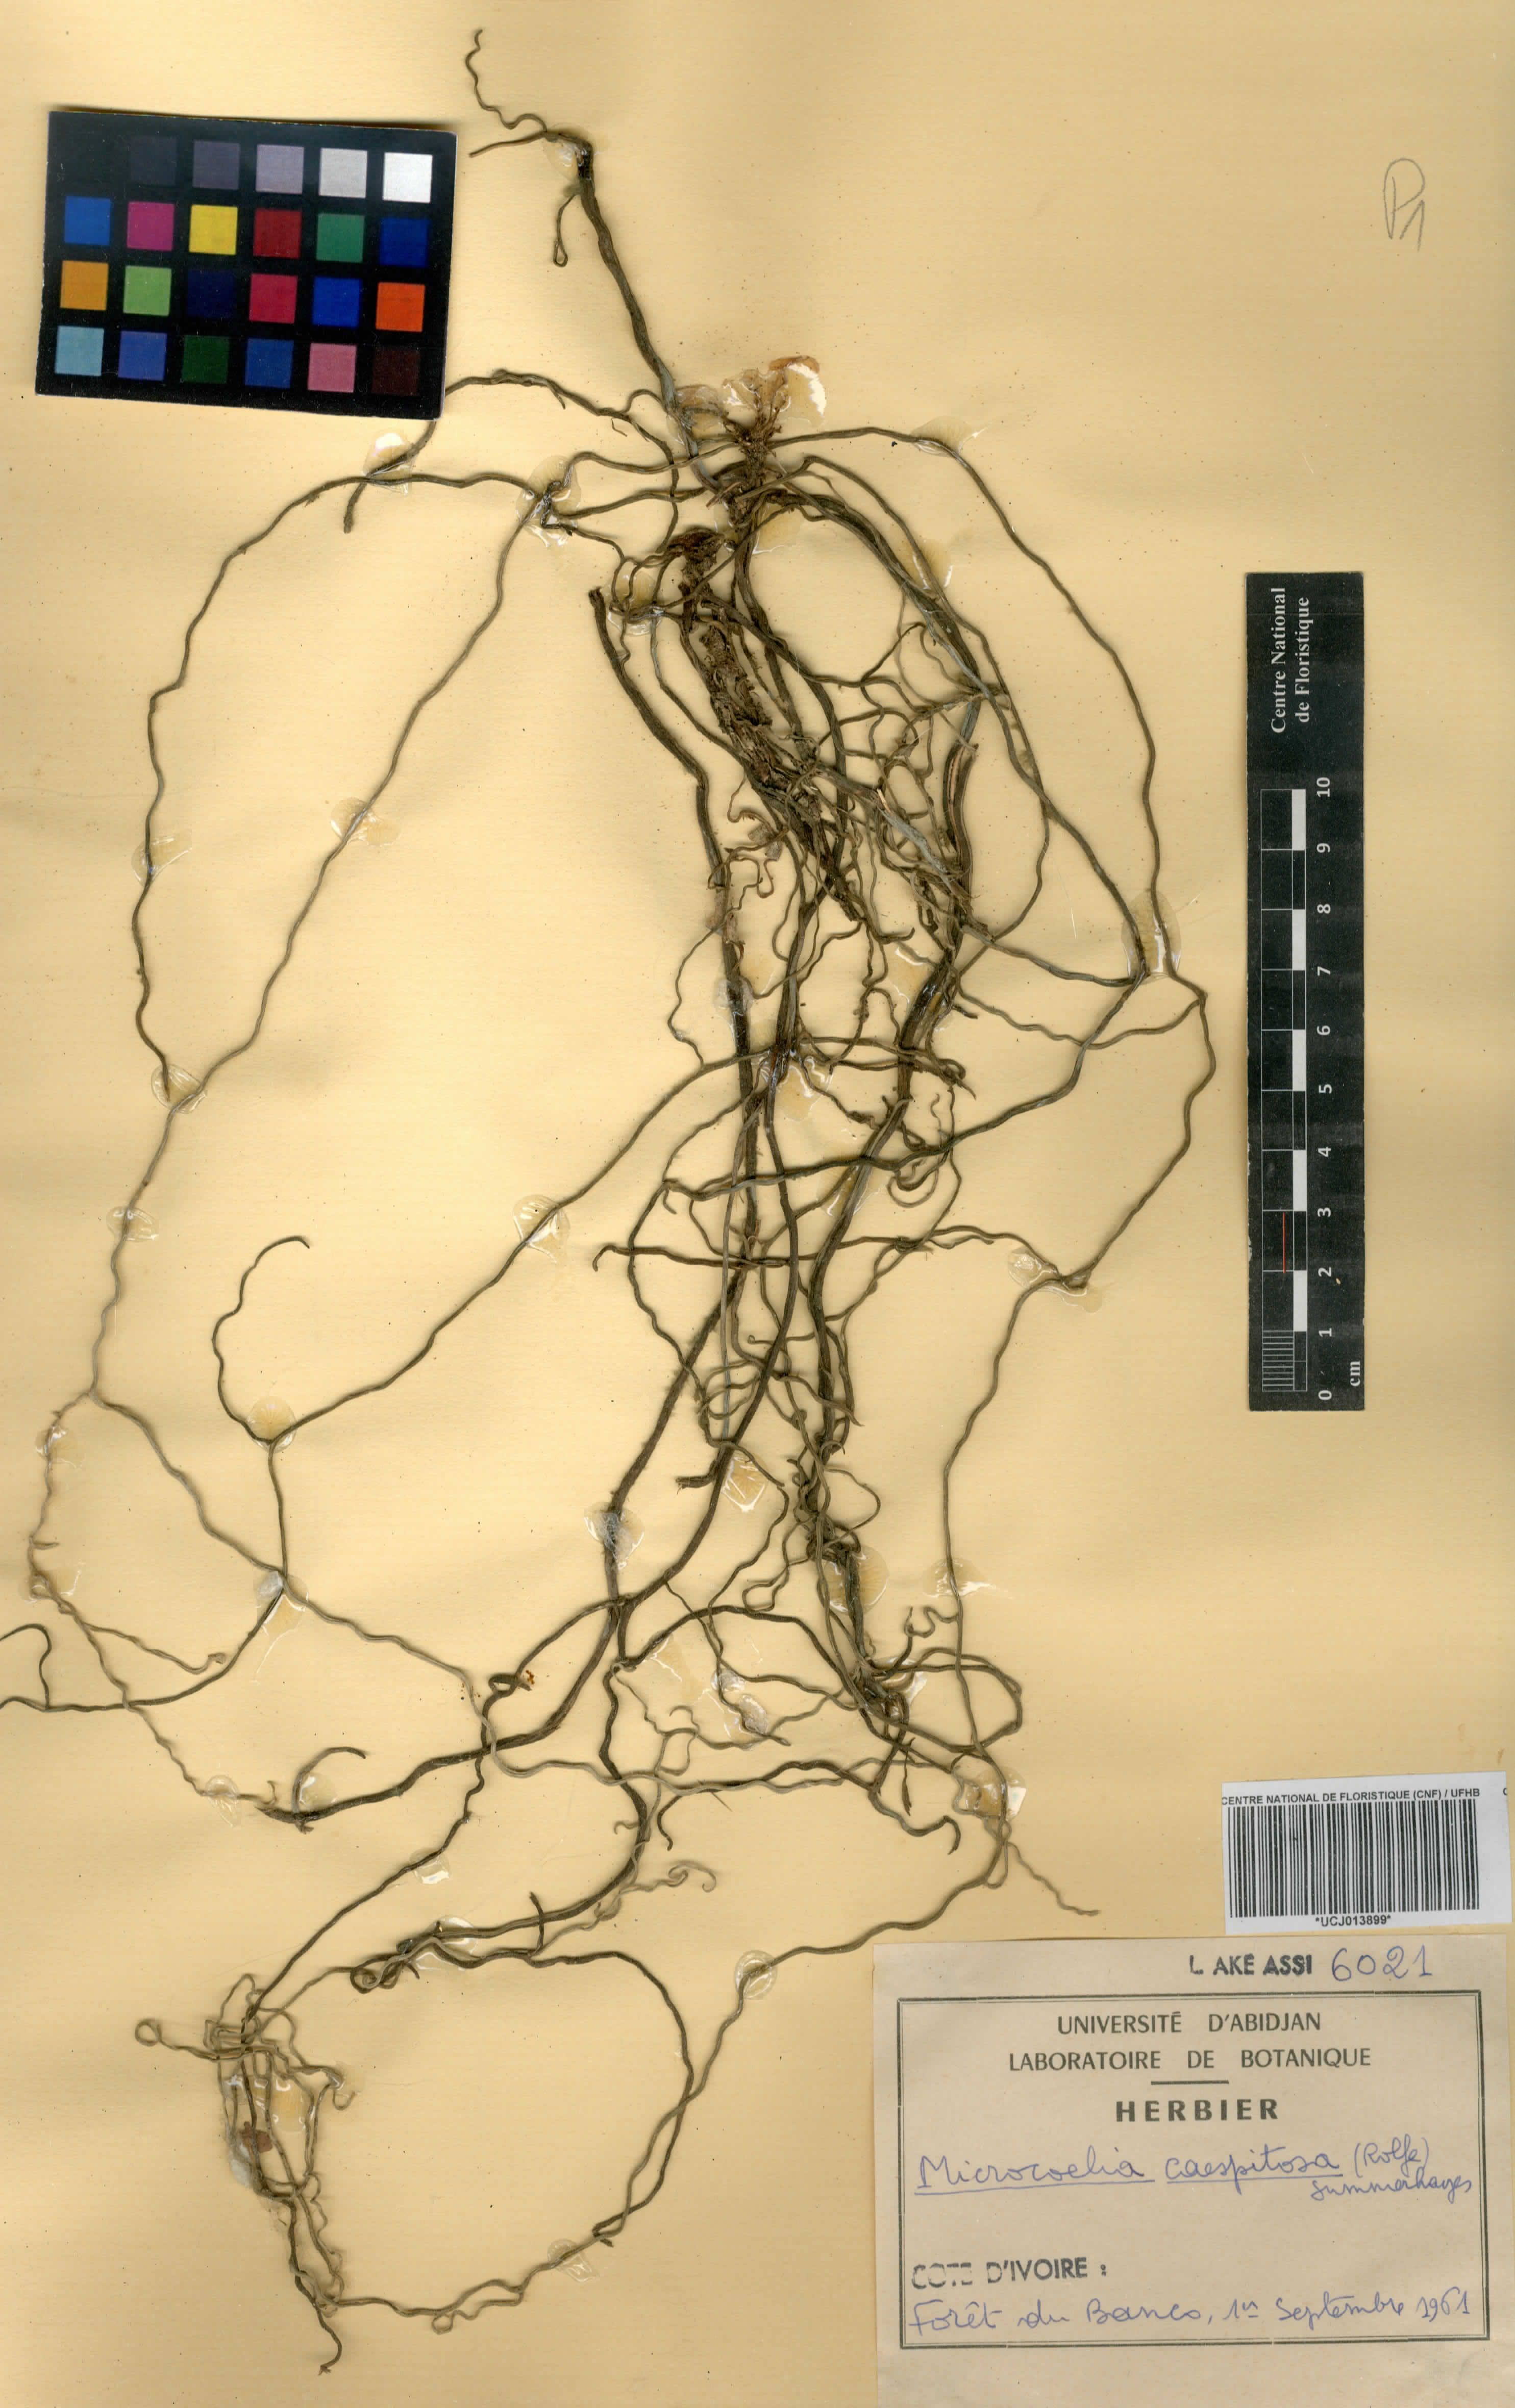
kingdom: Plantae
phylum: Tracheophyta
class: Liliopsida
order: Asparagales
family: Orchidaceae
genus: Microcoelia
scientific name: Microcoelia caespitosa
